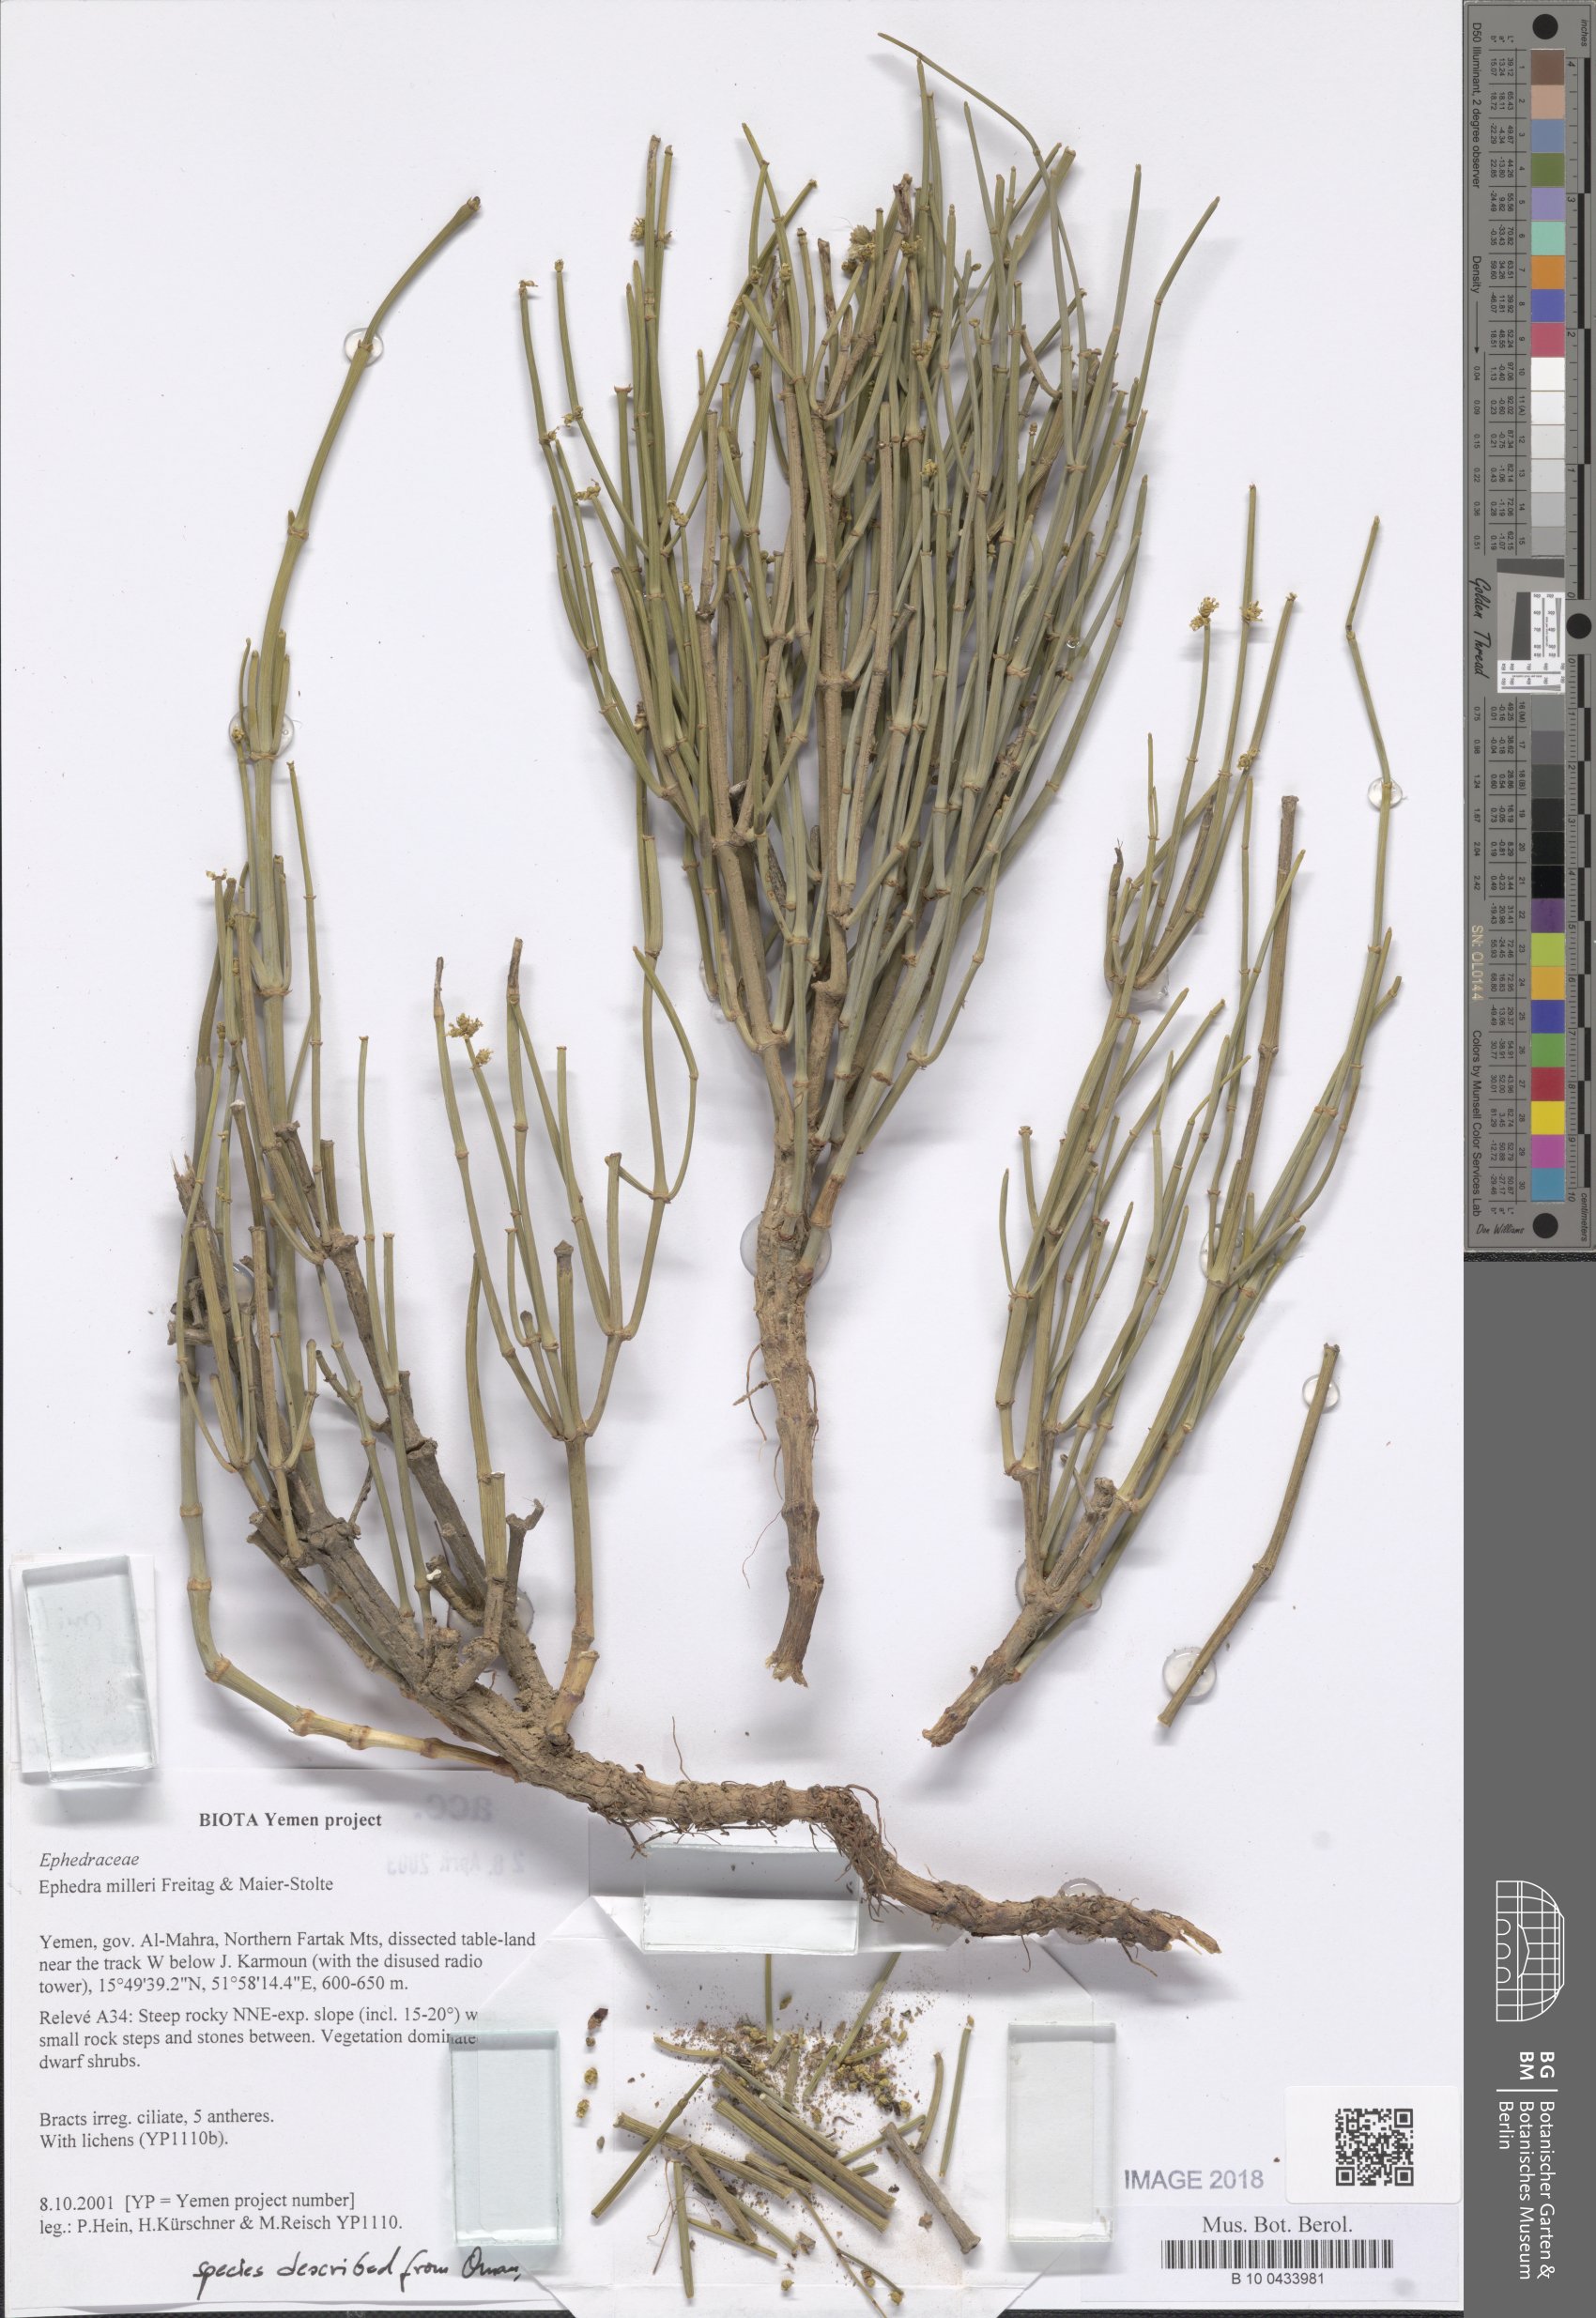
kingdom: Plantae
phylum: Tracheophyta
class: Gnetopsida
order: Ephedrales
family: Ephedraceae
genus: Ephedra
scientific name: Ephedra milleri
